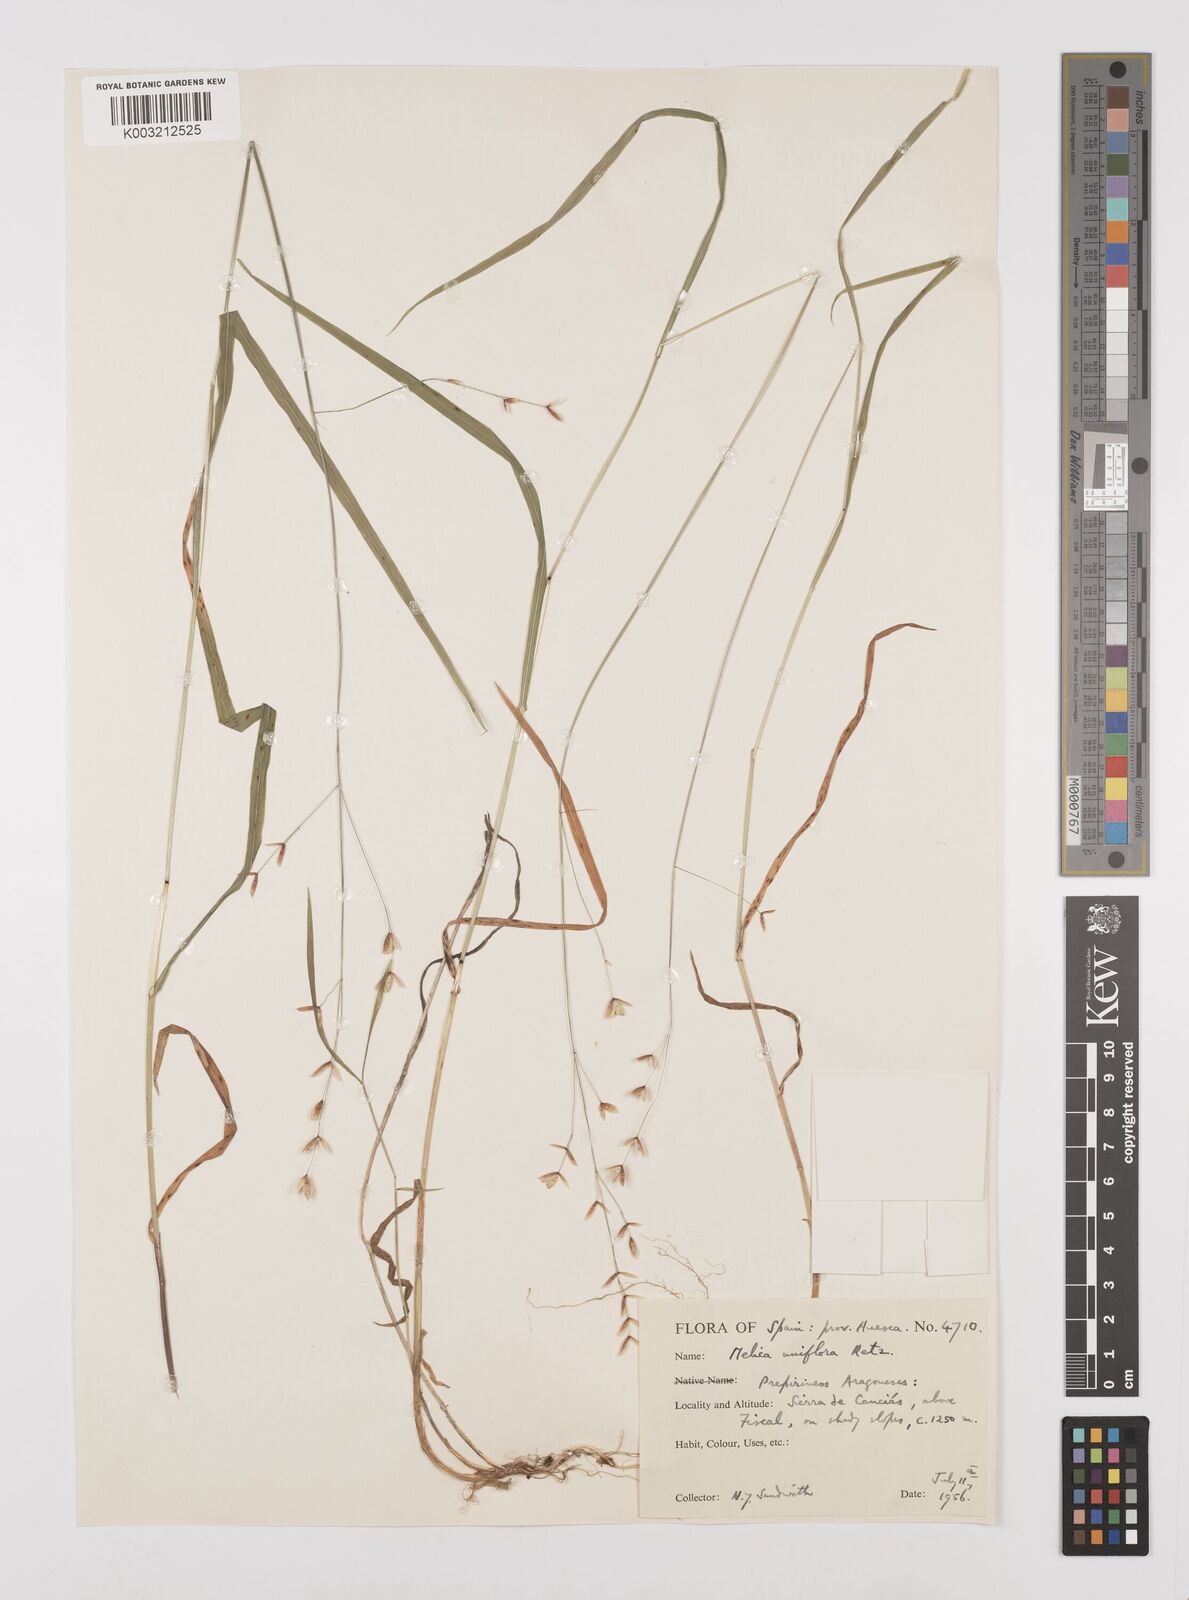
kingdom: Plantae
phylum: Tracheophyta
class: Liliopsida
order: Poales
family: Poaceae
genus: Melica
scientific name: Melica uniflora
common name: Wood melick
